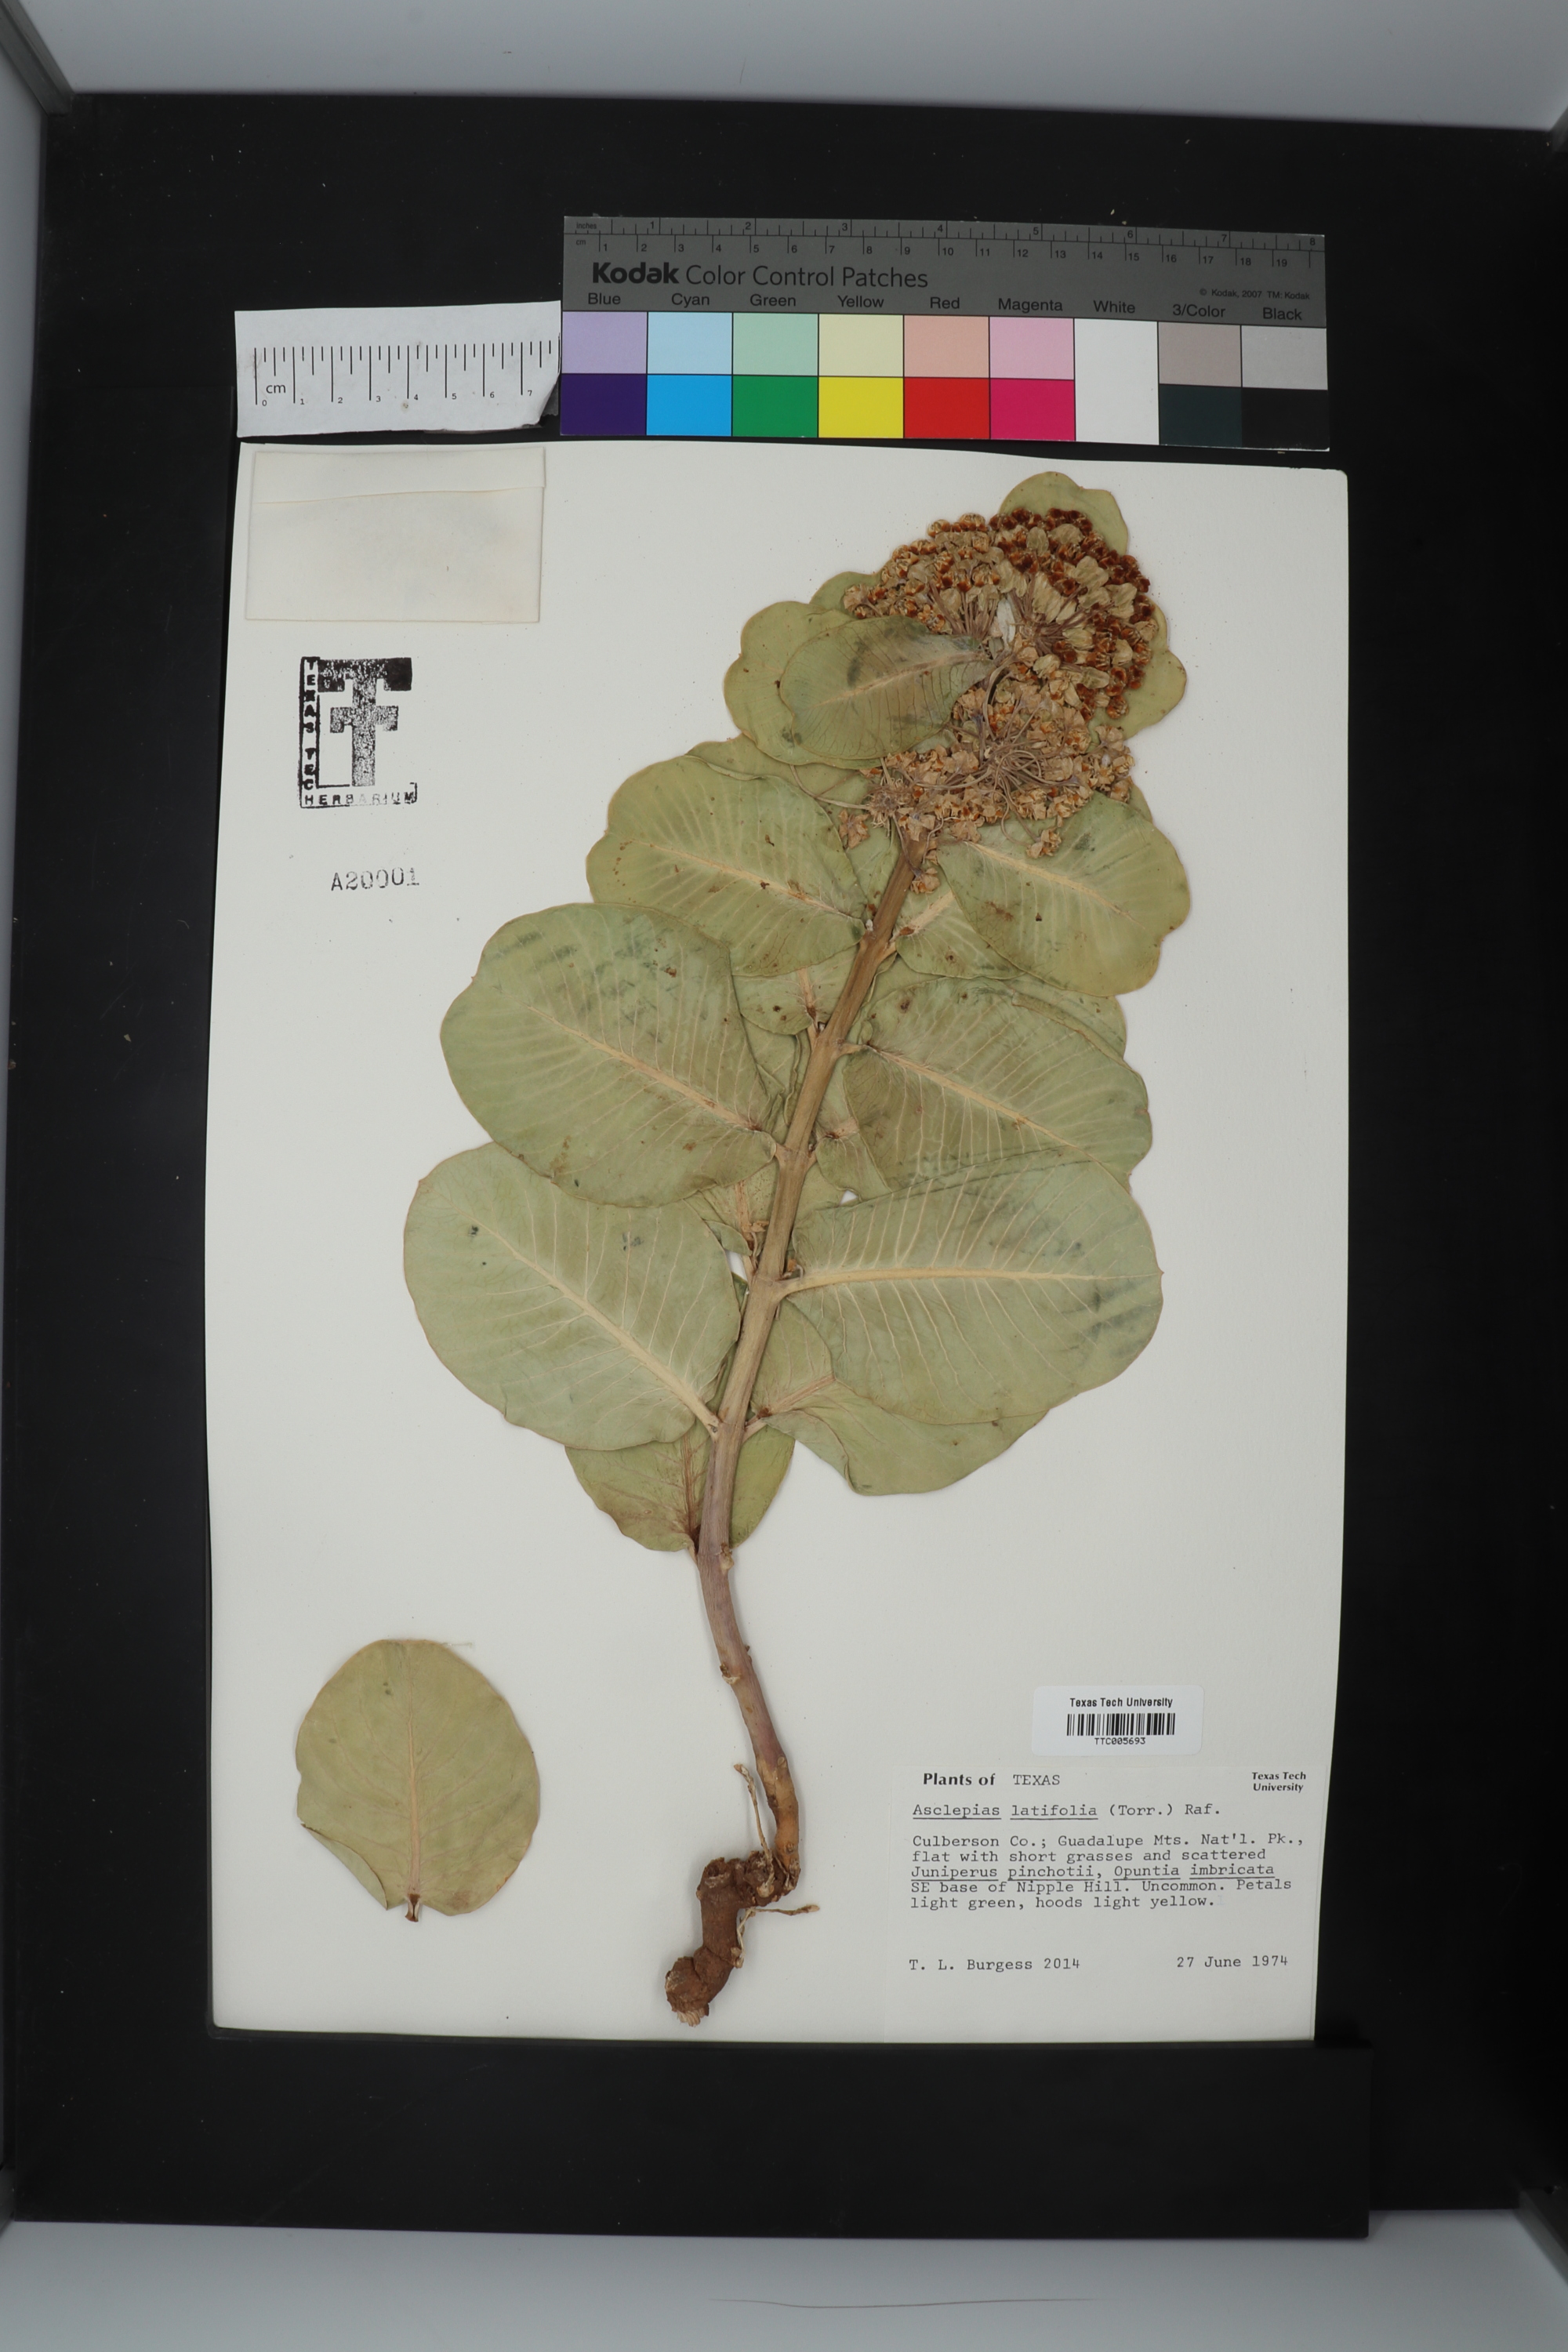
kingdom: Plantae
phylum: Tracheophyta
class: Magnoliopsida
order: Gentianales
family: Apocynaceae
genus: Asclepias
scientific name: Asclepias latifolia
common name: Broadleaf milkweed
